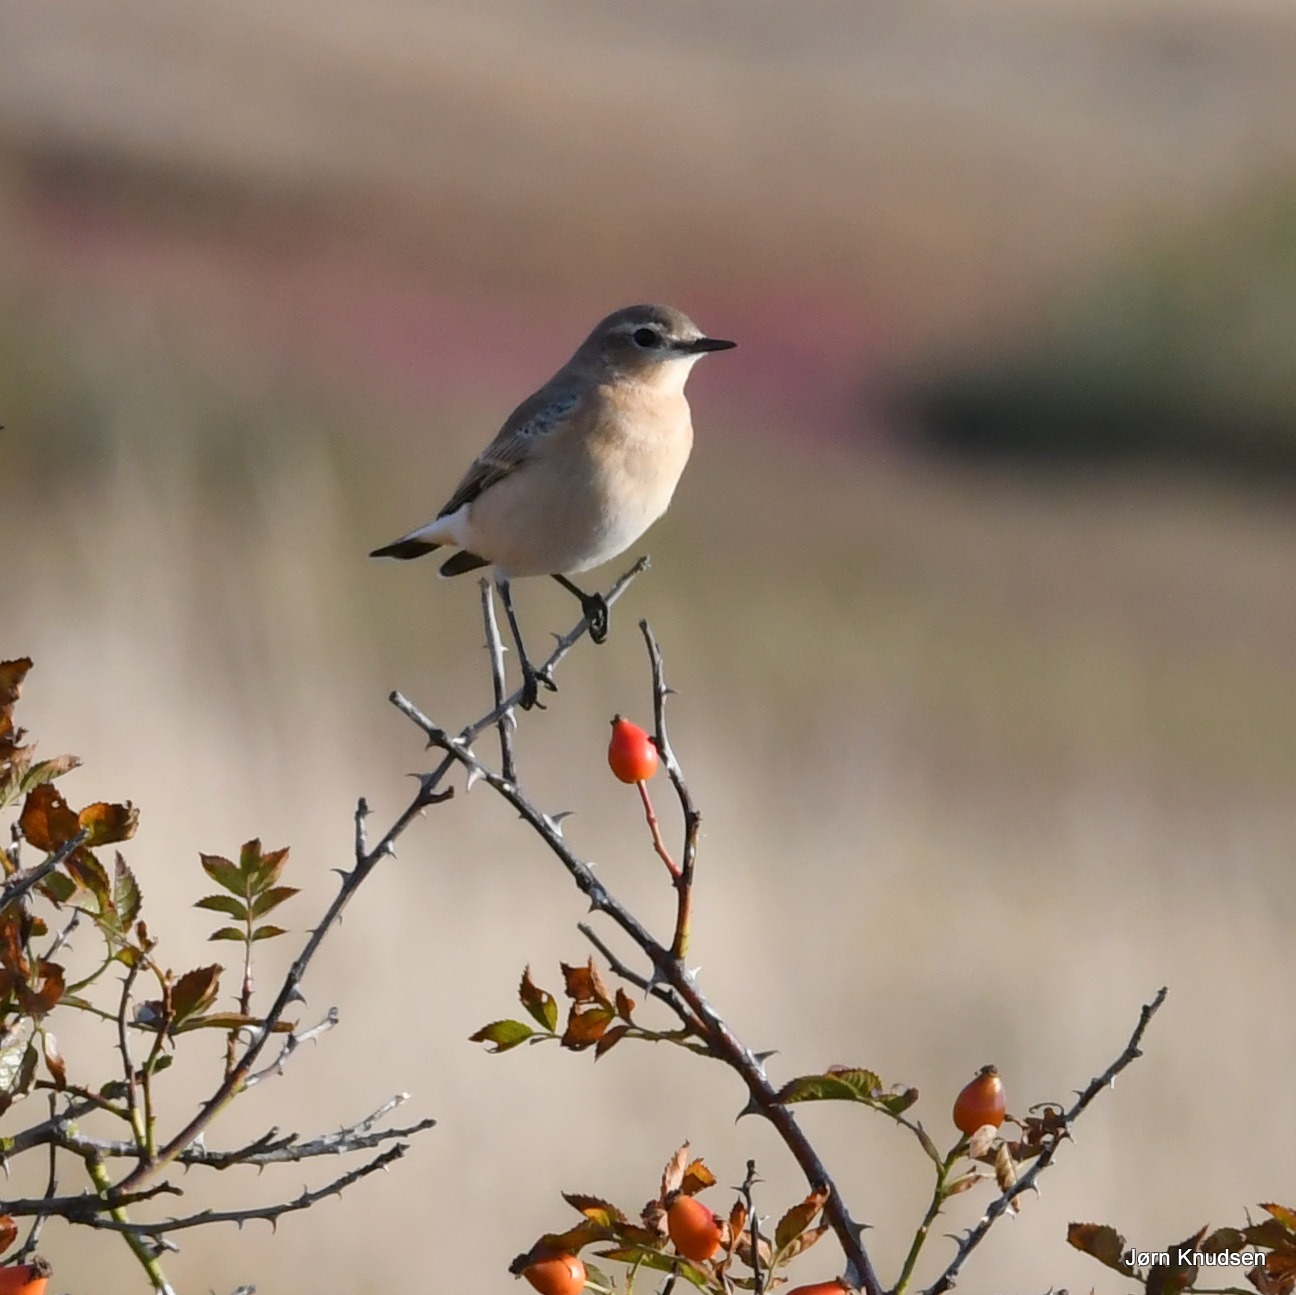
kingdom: Animalia
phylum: Chordata
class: Aves
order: Passeriformes
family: Muscicapidae
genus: Oenanthe
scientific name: Oenanthe oenanthe
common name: Stenpikker
